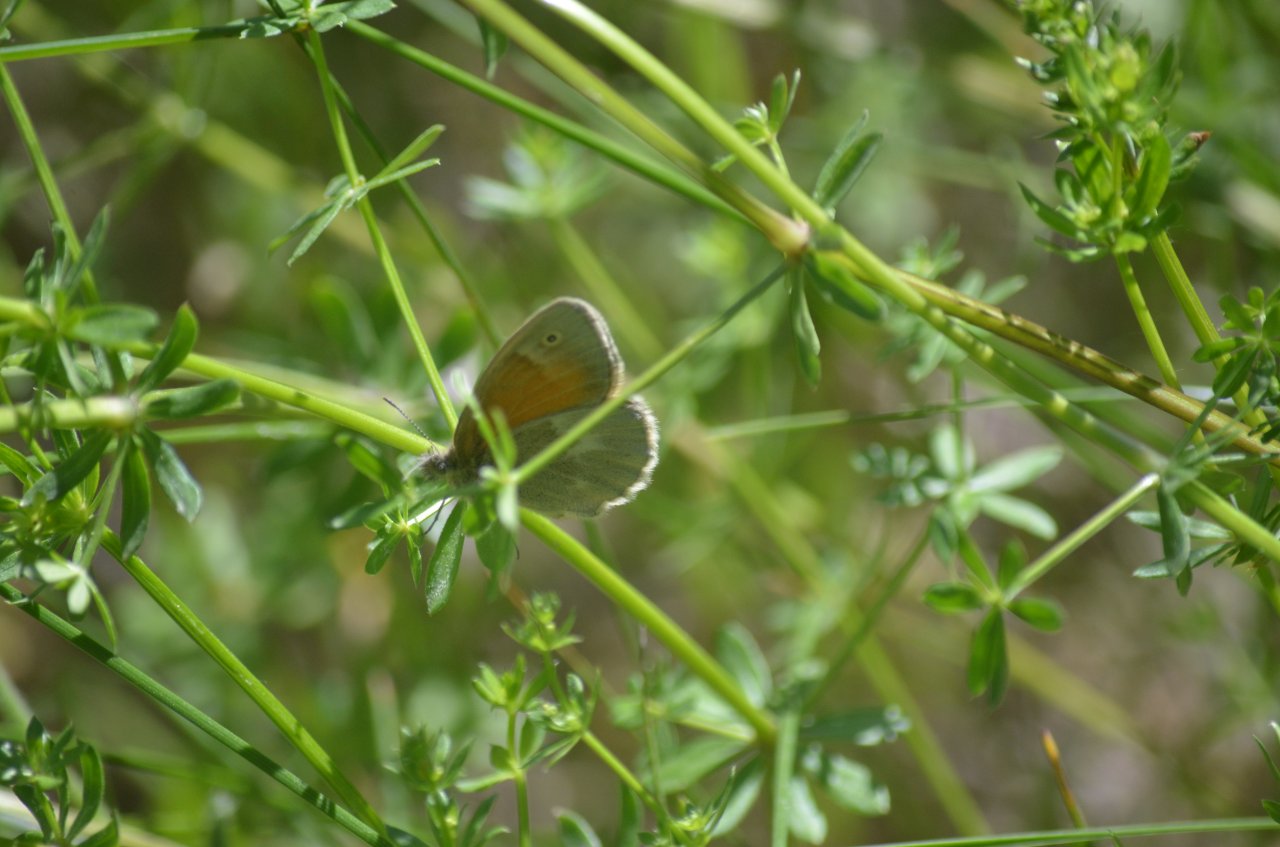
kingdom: Animalia
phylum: Arthropoda
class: Insecta
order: Lepidoptera
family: Nymphalidae
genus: Coenonympha
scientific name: Coenonympha tullia
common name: Large Heath
